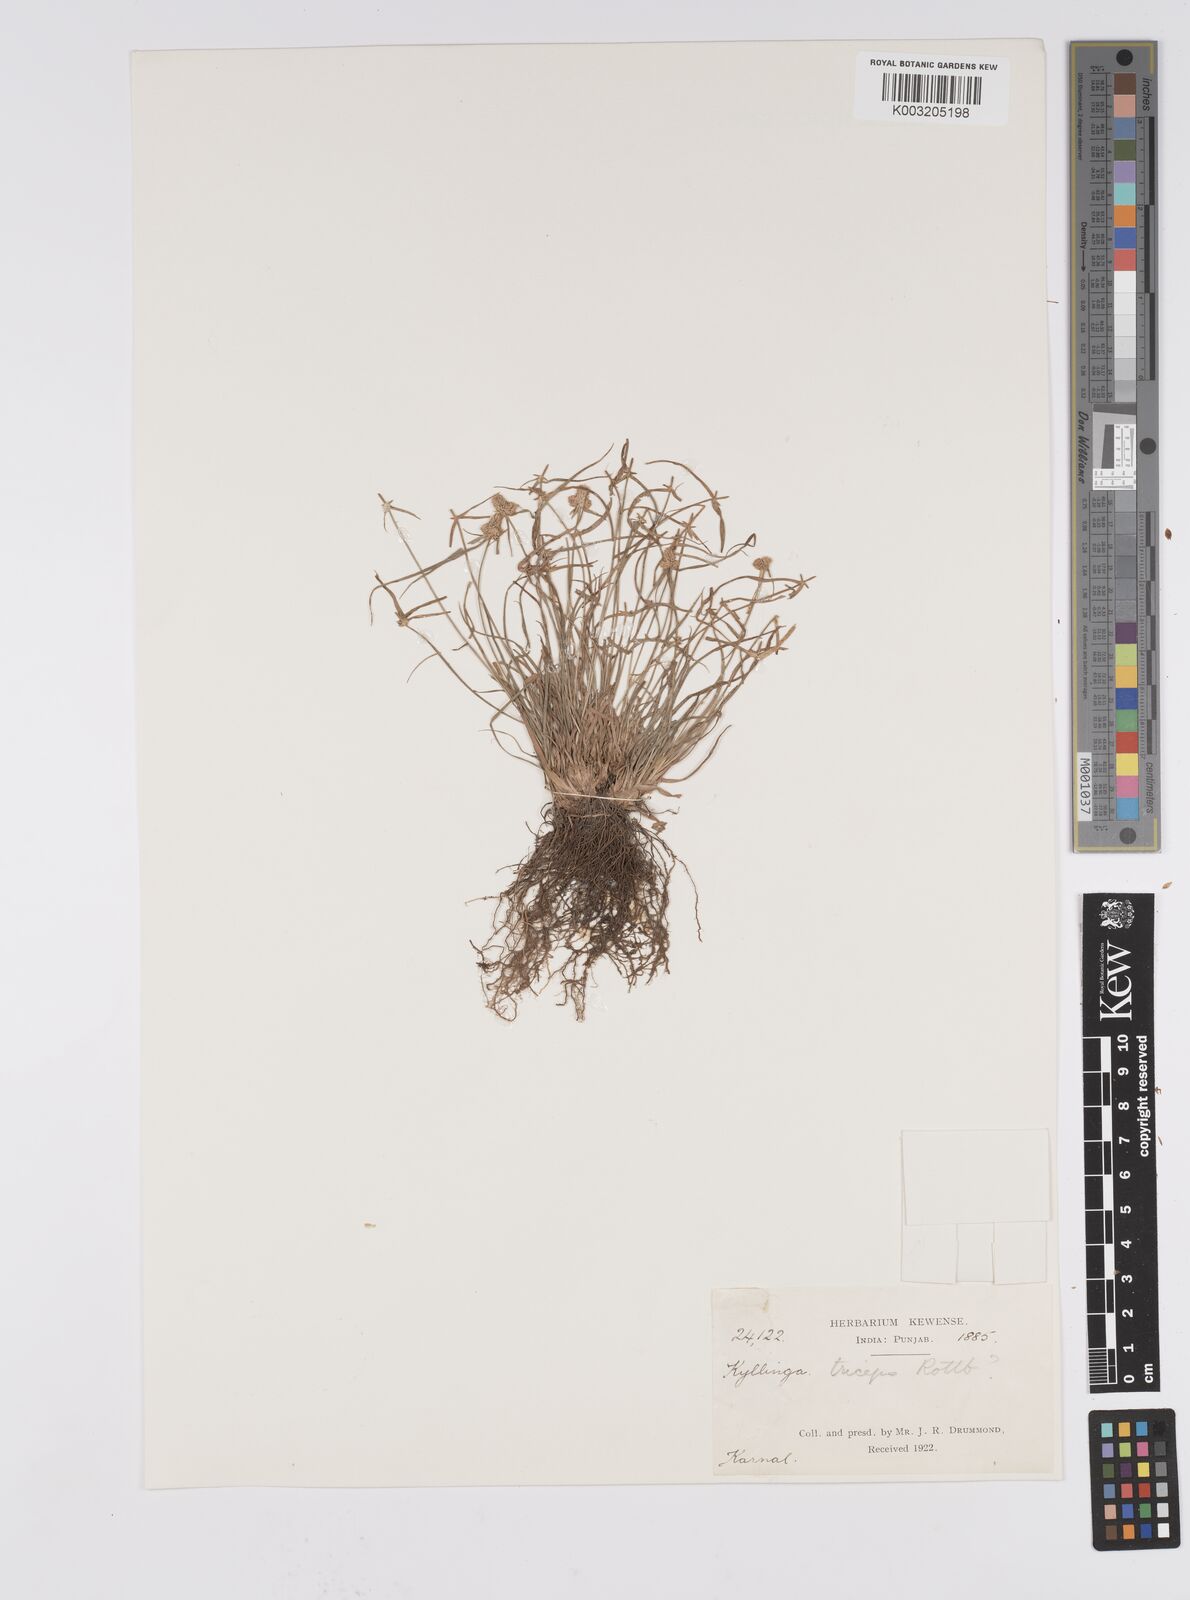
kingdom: Plantae
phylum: Tracheophyta
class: Liliopsida
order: Poales
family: Cyperaceae
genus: Cyperus
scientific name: Cyperus
